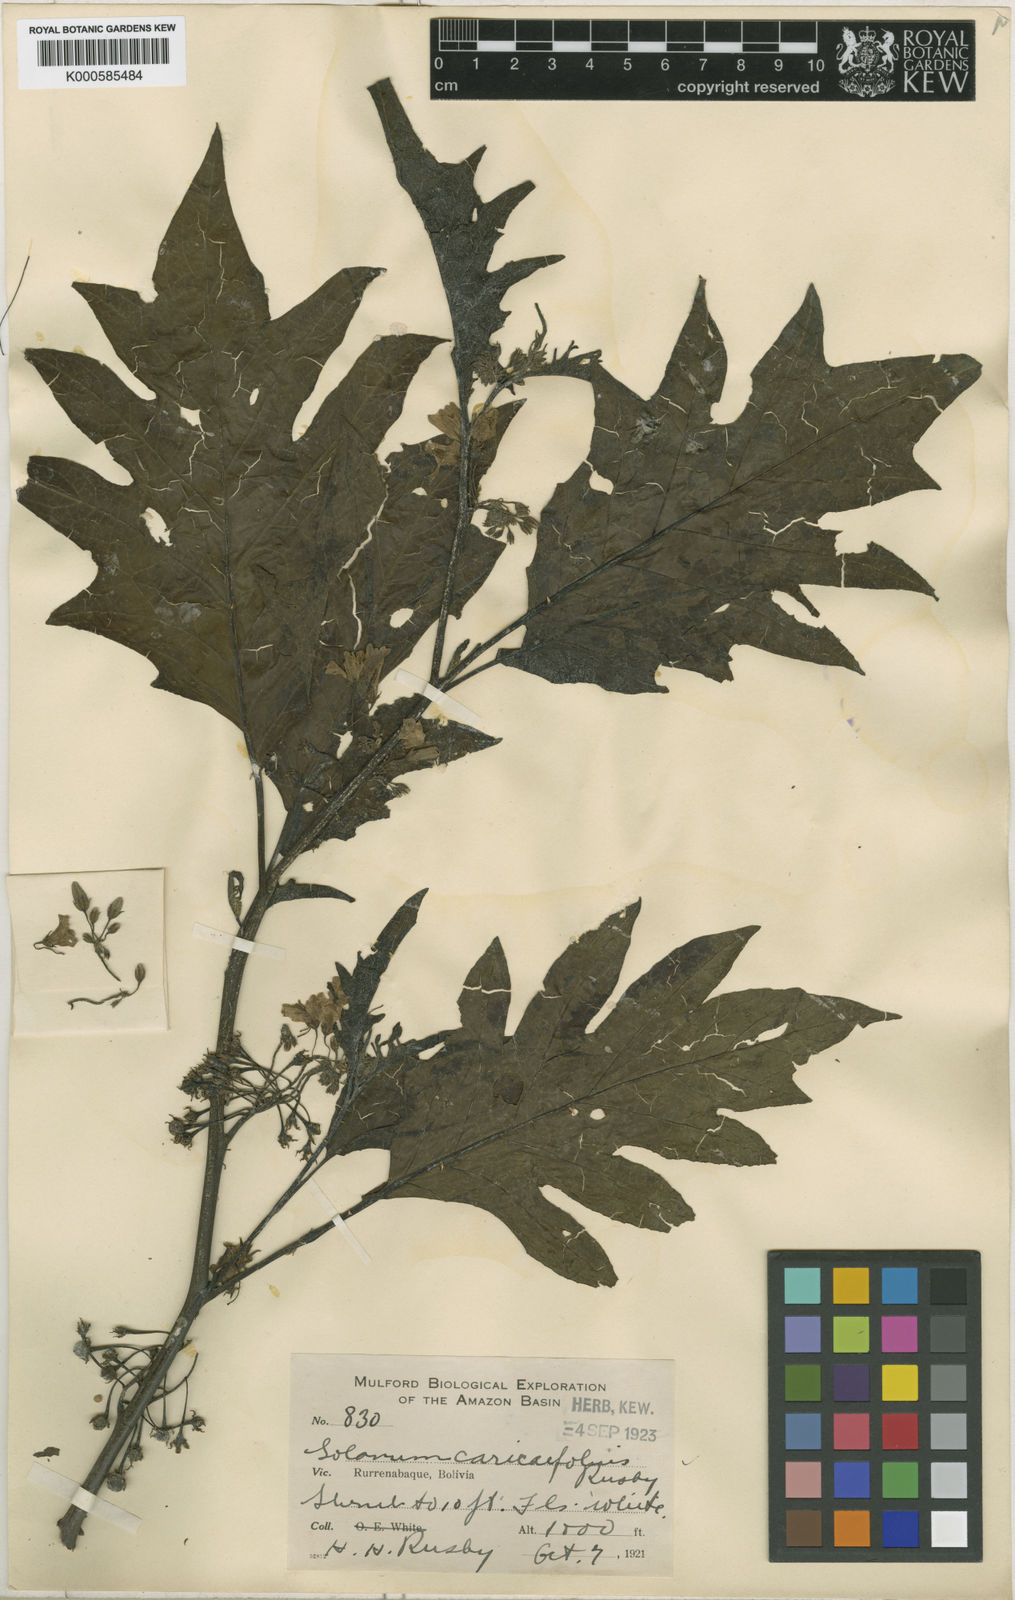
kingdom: Plantae
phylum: Tracheophyta
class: Magnoliopsida
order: Solanales
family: Solanaceae
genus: Solanum
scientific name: Solanum caricaefolium
